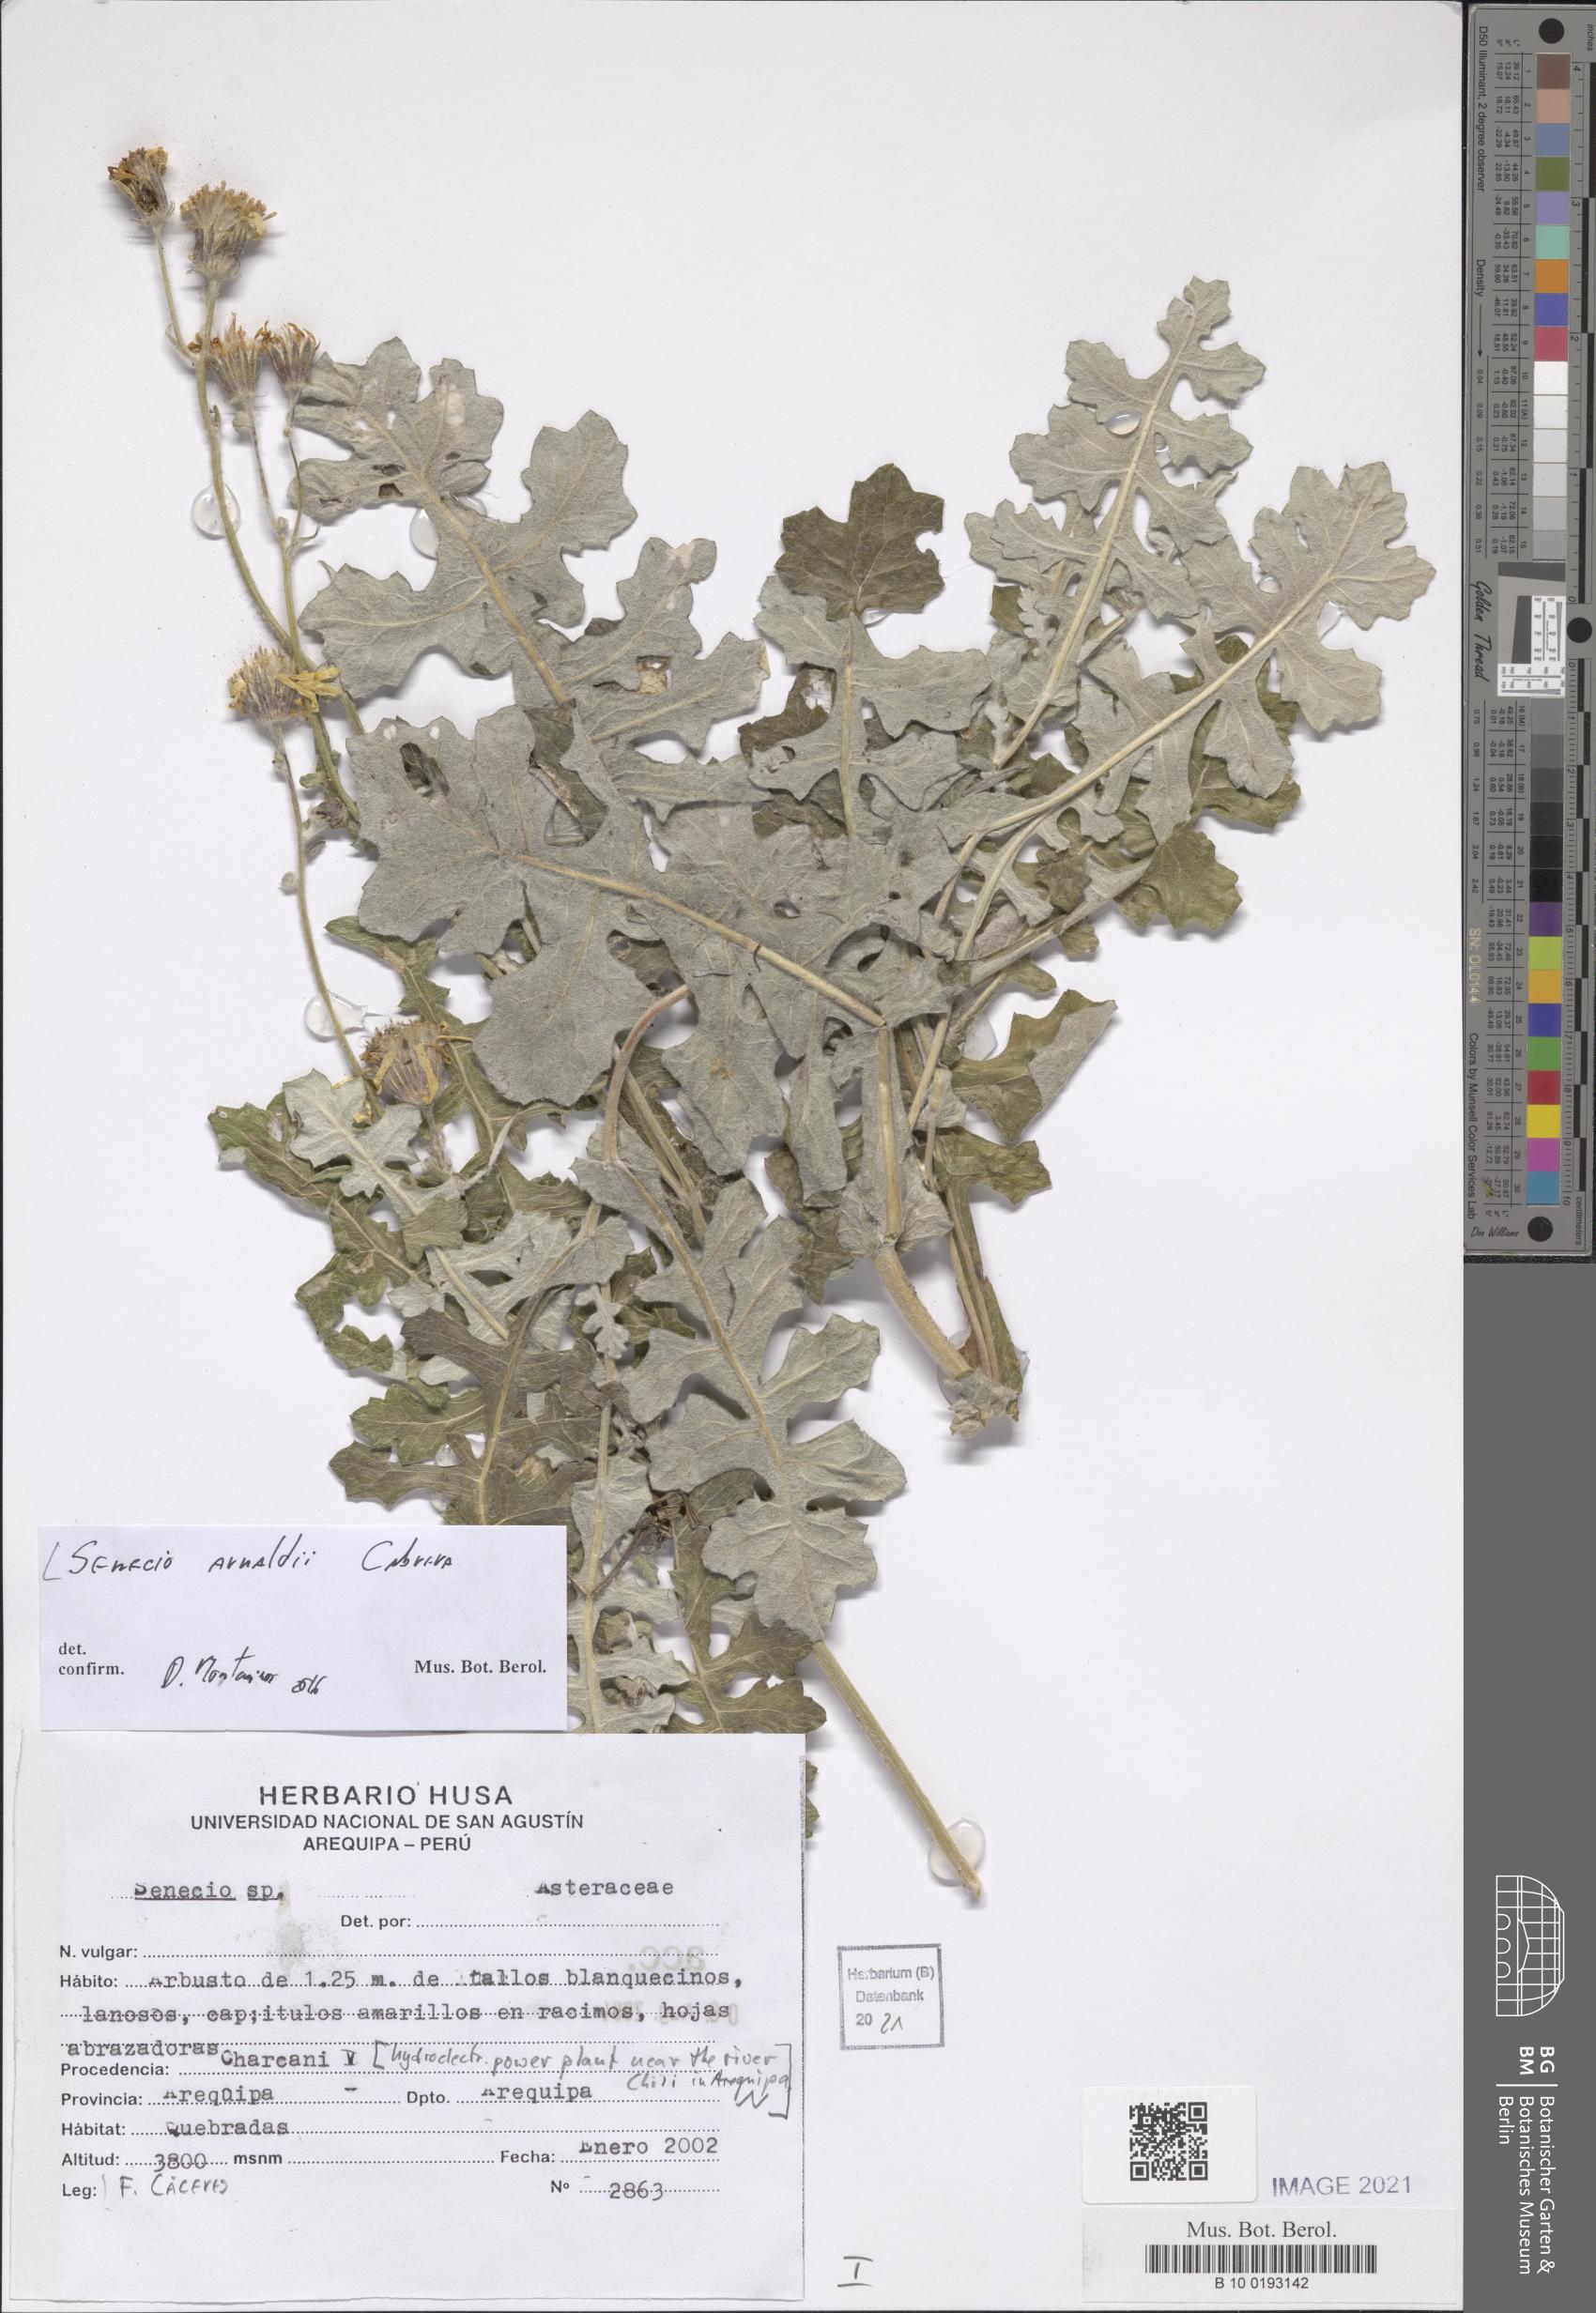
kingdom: Plantae
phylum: Tracheophyta
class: Magnoliopsida
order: Asterales
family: Asteraceae
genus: Lomanthus
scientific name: Lomanthus arnaldii
